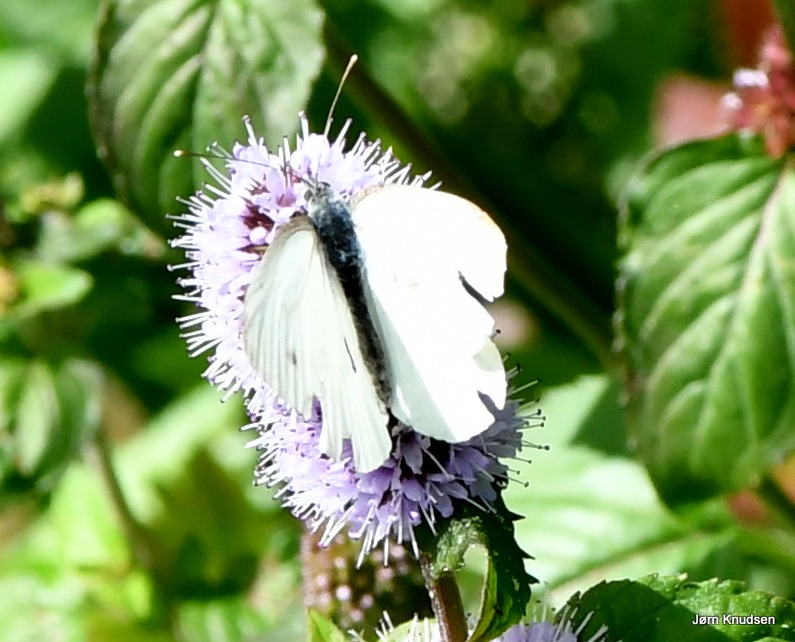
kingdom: Animalia
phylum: Arthropoda
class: Insecta
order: Lepidoptera
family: Pieridae
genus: Pieris
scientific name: Pieris rapae
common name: Lille kålsommerfugl
